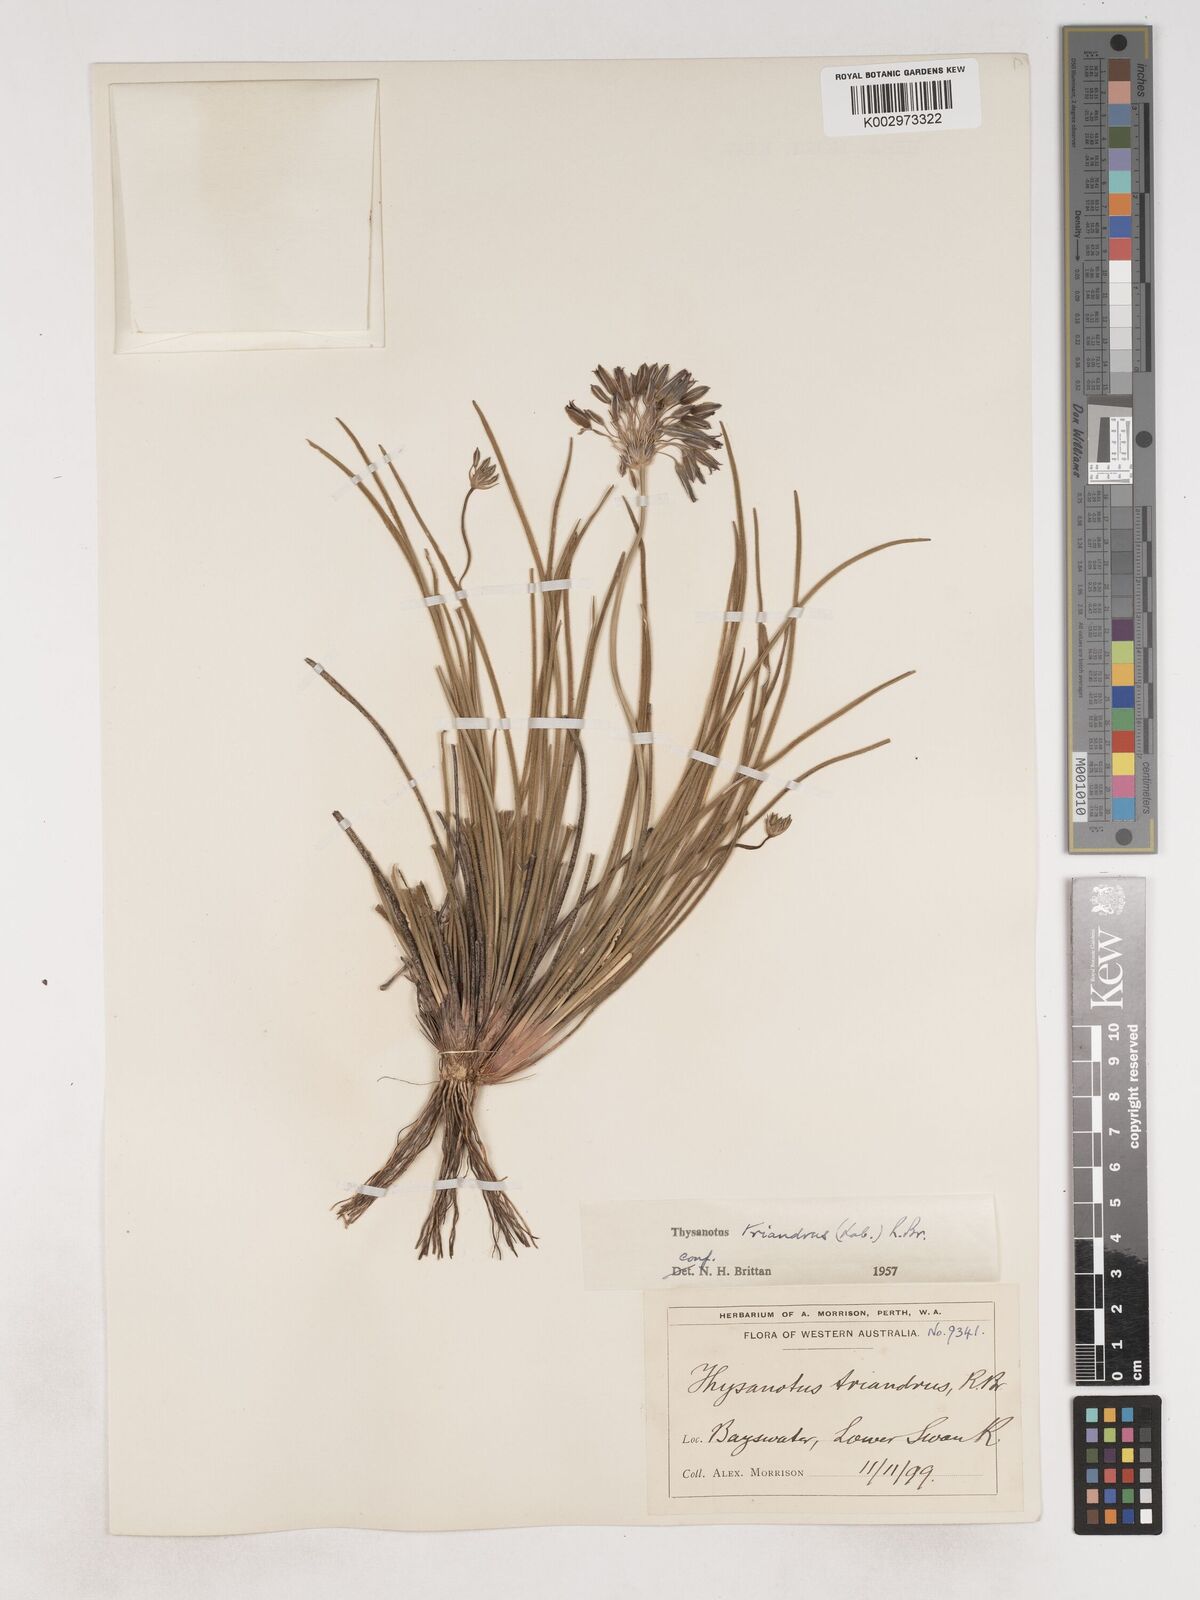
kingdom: Plantae
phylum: Tracheophyta
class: Liliopsida
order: Asparagales
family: Asparagaceae
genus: Thysanotus
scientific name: Thysanotus triandrus
